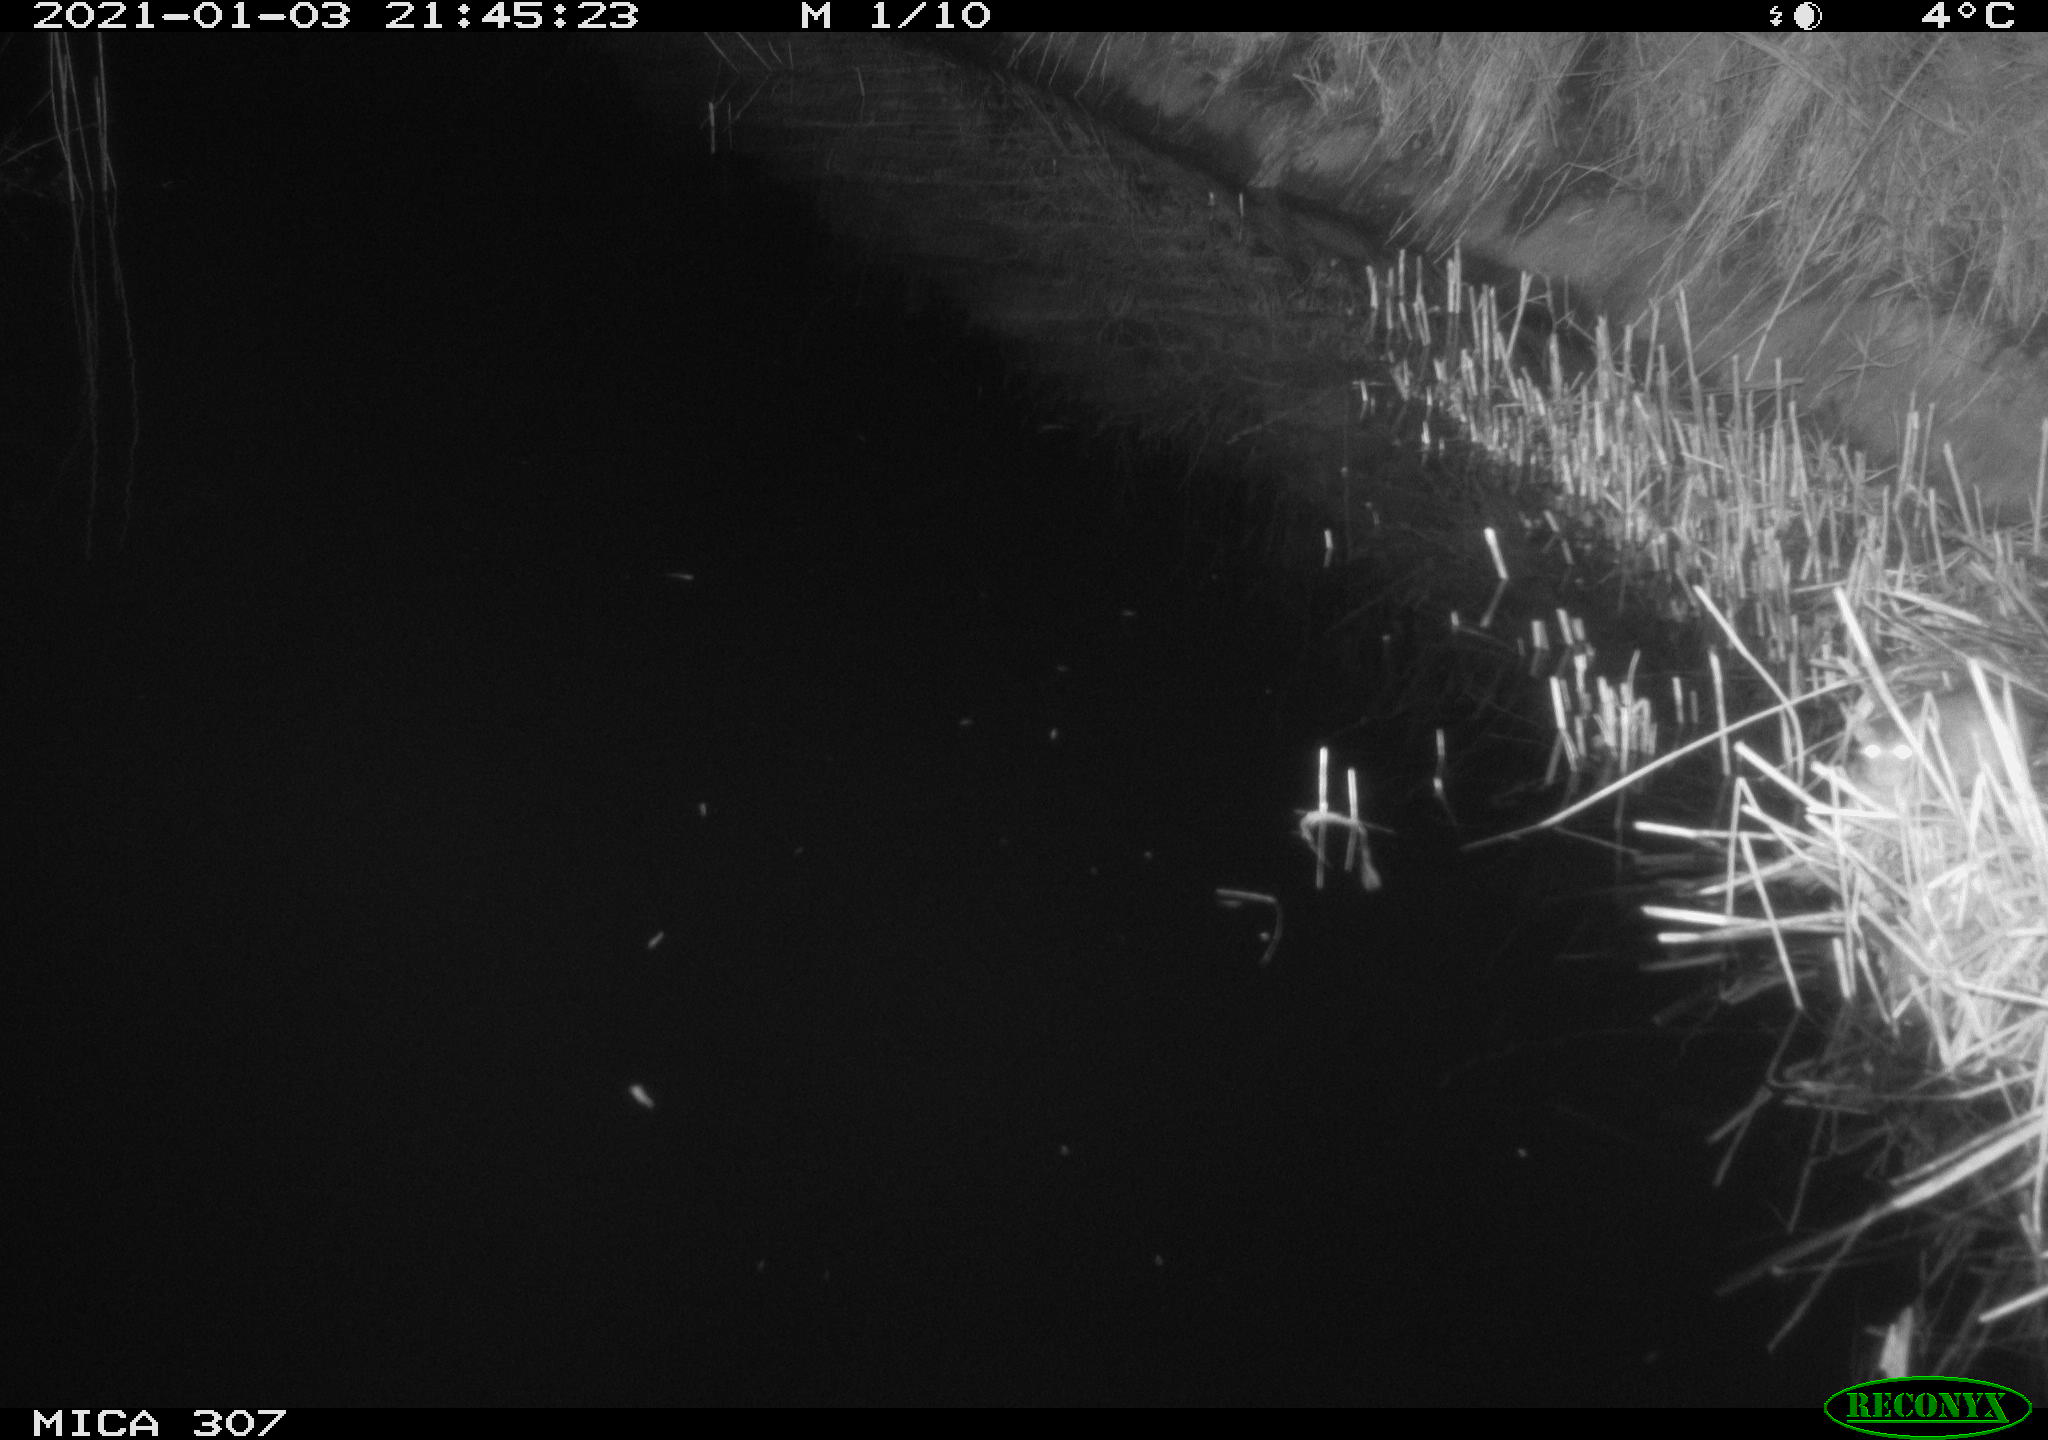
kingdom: Animalia
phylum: Chordata
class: Mammalia
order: Rodentia
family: Muridae
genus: Rattus
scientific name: Rattus norvegicus
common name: Brown rat
